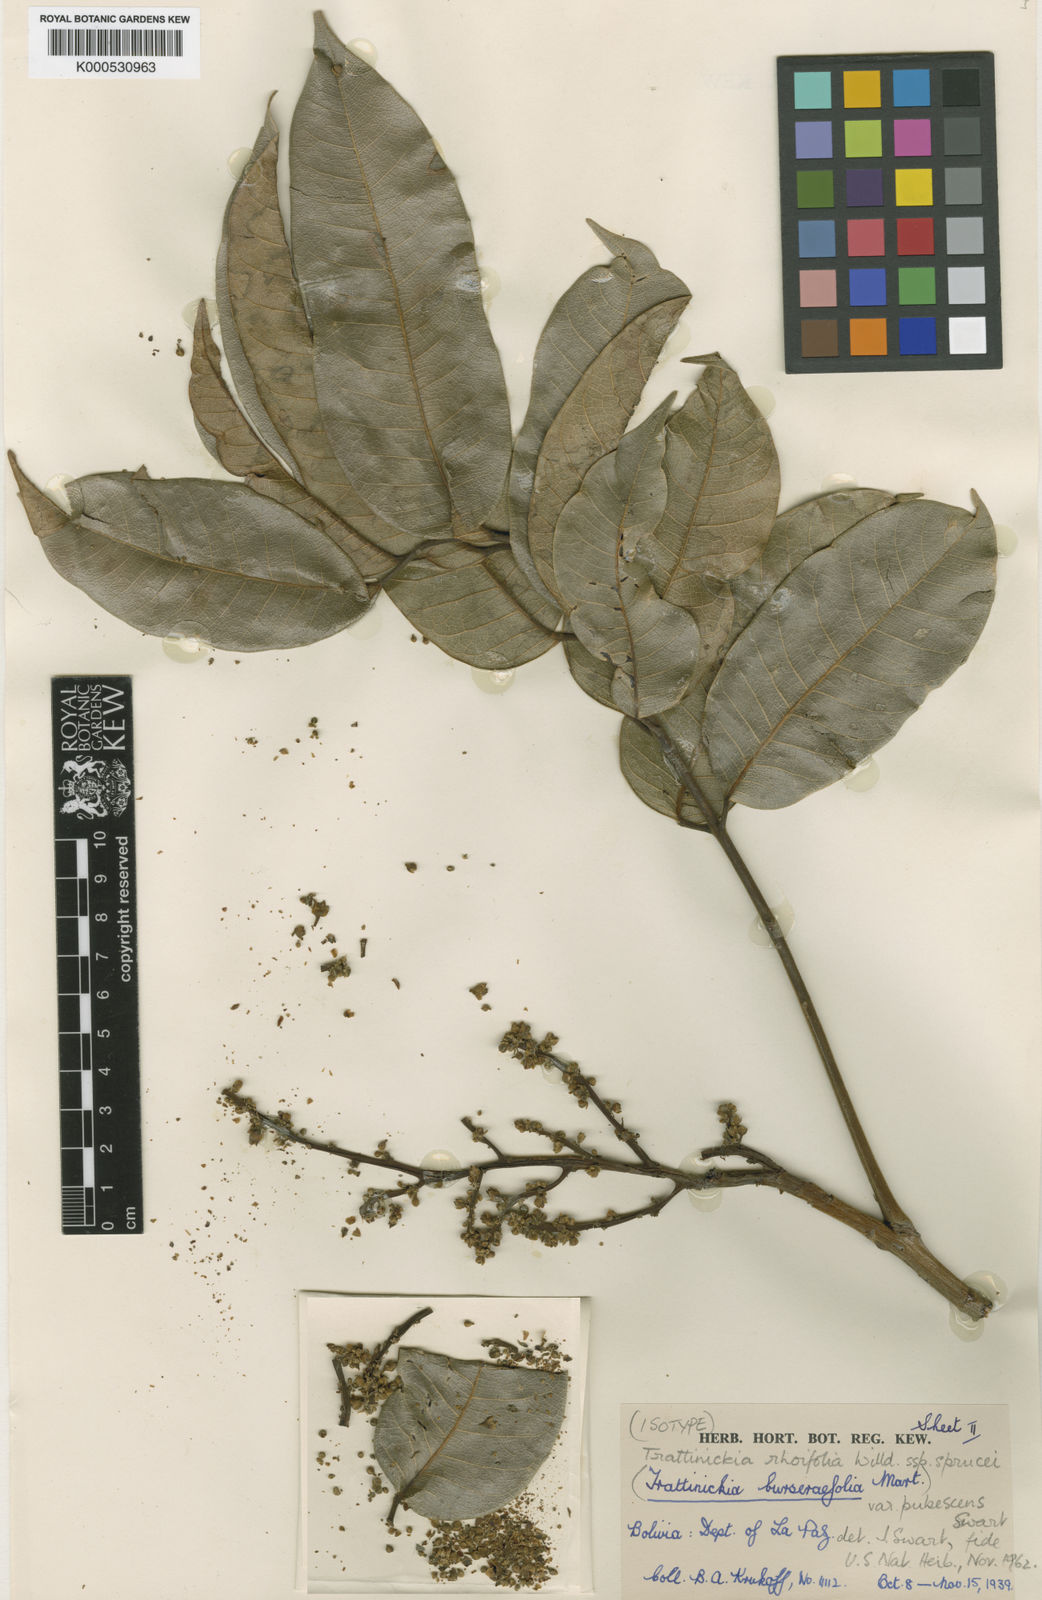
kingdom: Plantae
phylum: Tracheophyta
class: Magnoliopsida
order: Sapindales
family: Burseraceae
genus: Trattinnickia
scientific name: Trattinnickia peruviana
